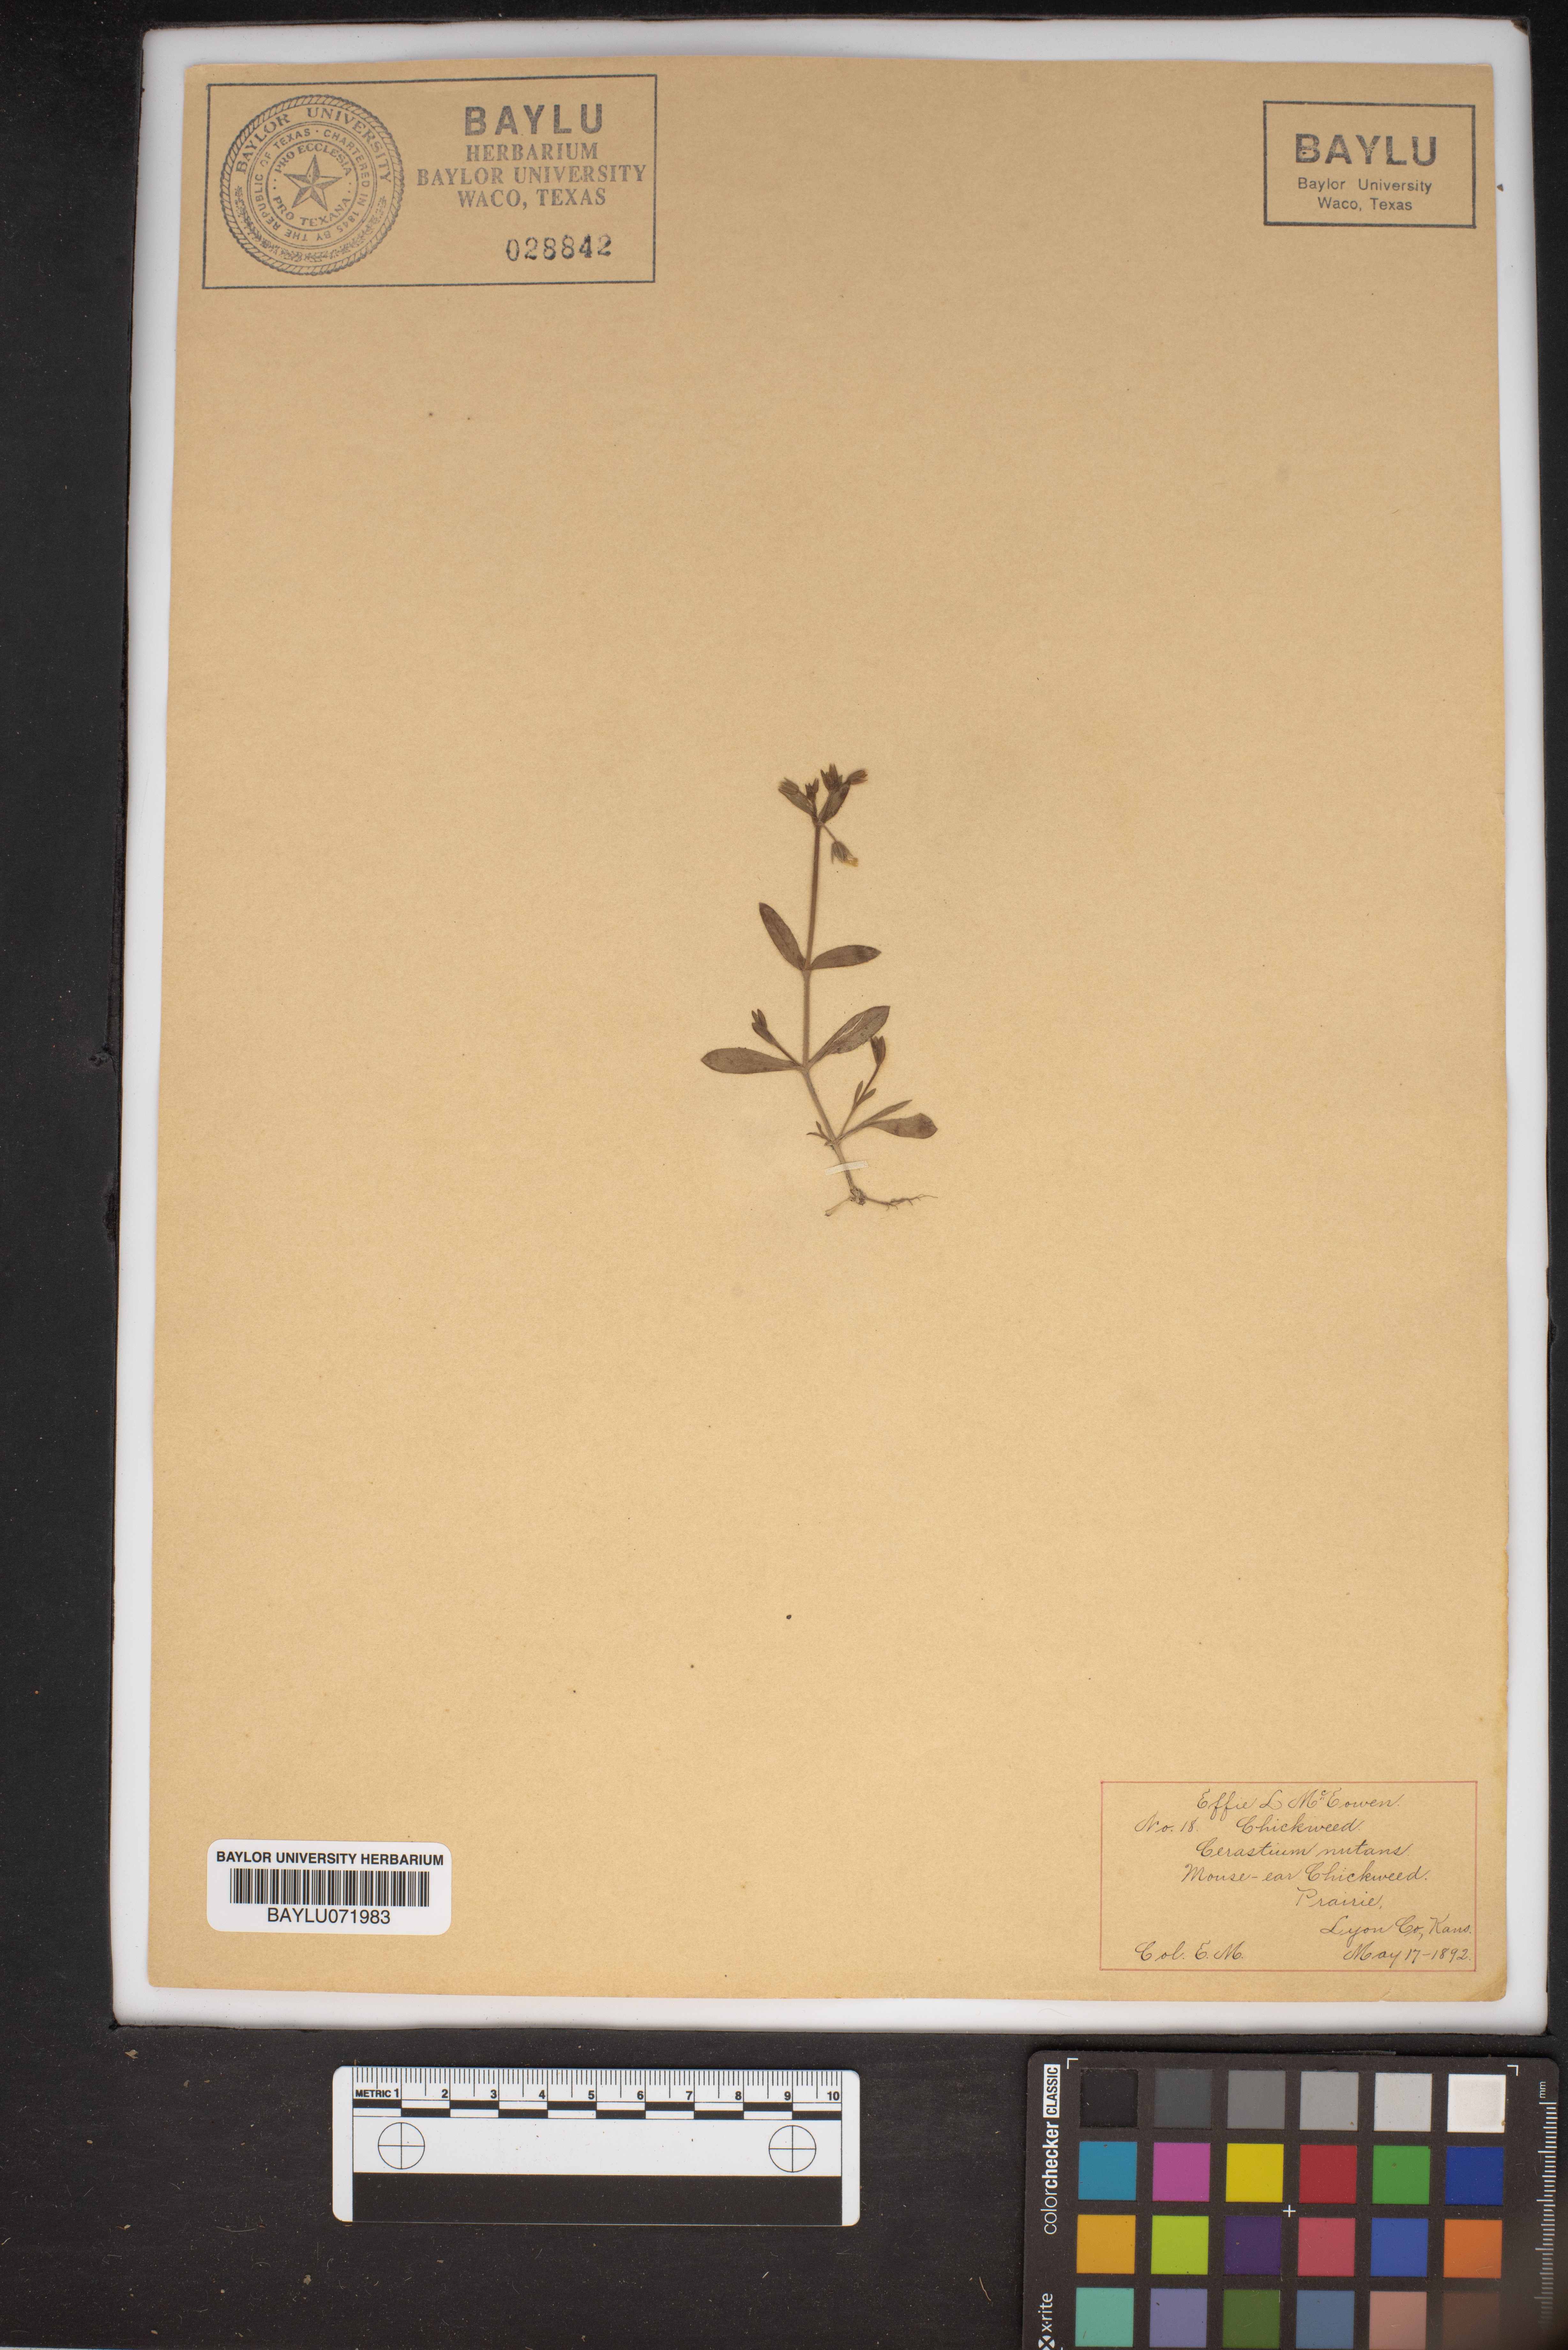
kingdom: Plantae
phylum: Tracheophyta
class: Magnoliopsida
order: Caryophyllales
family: Caryophyllaceae
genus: Cerastium
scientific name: Cerastium nutans
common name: Long-stalked chickweed
